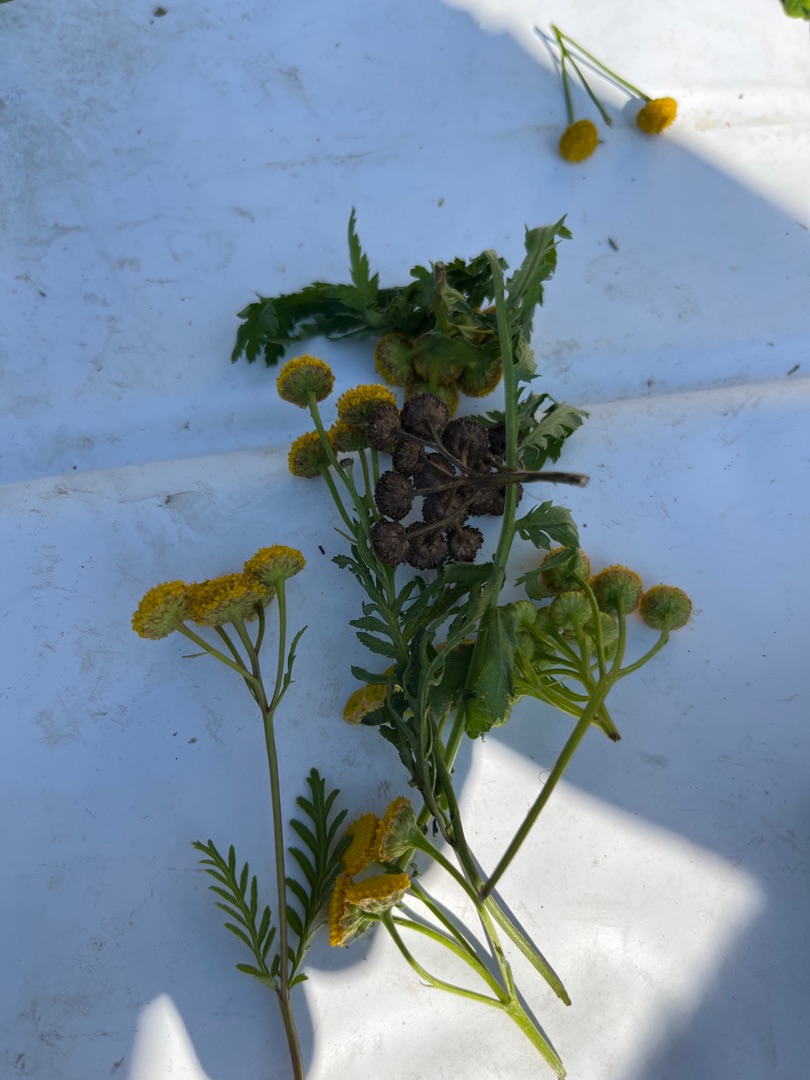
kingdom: Plantae
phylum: Tracheophyta
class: Magnoliopsida
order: Asterales
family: Asteraceae
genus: Tanacetum
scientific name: Tanacetum vulgare
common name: Rejnfan
